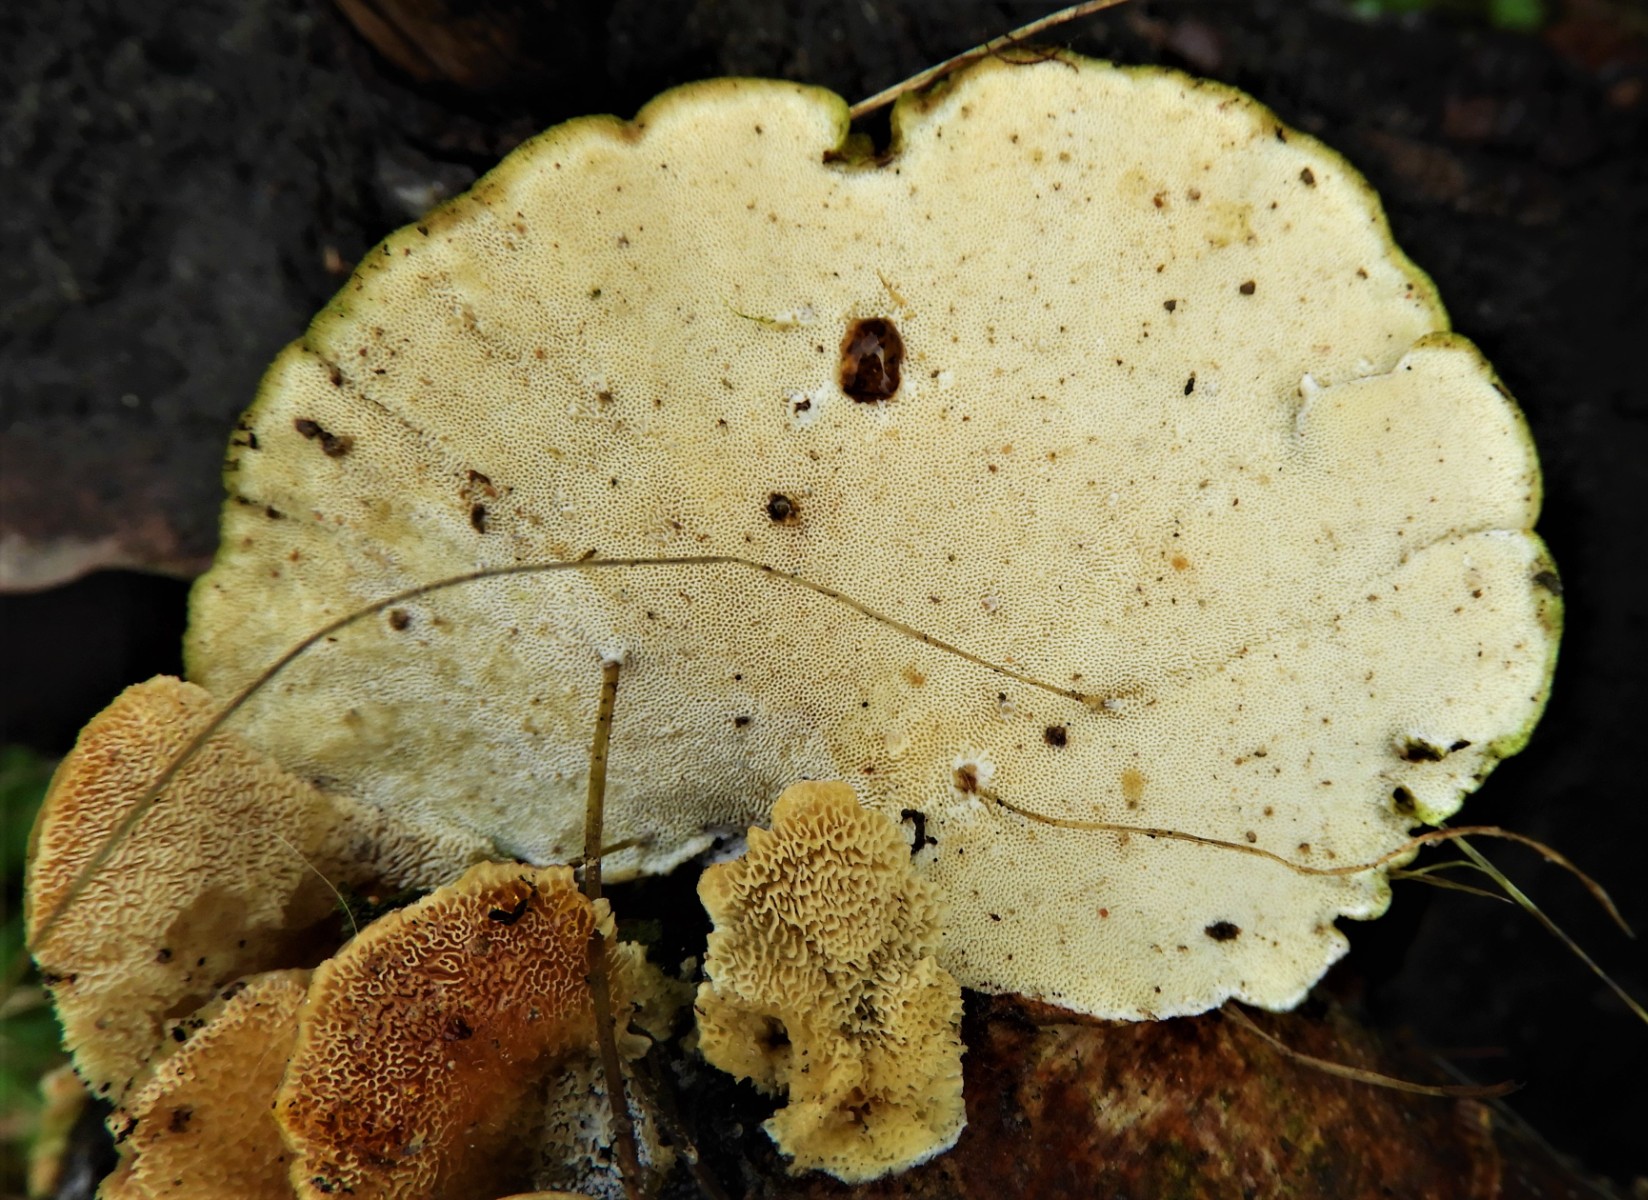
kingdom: Fungi
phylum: Basidiomycota
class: Agaricomycetes
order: Polyporales
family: Polyporaceae
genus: Trametes
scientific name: Trametes ochracea
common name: bæltet læderporesvamp
